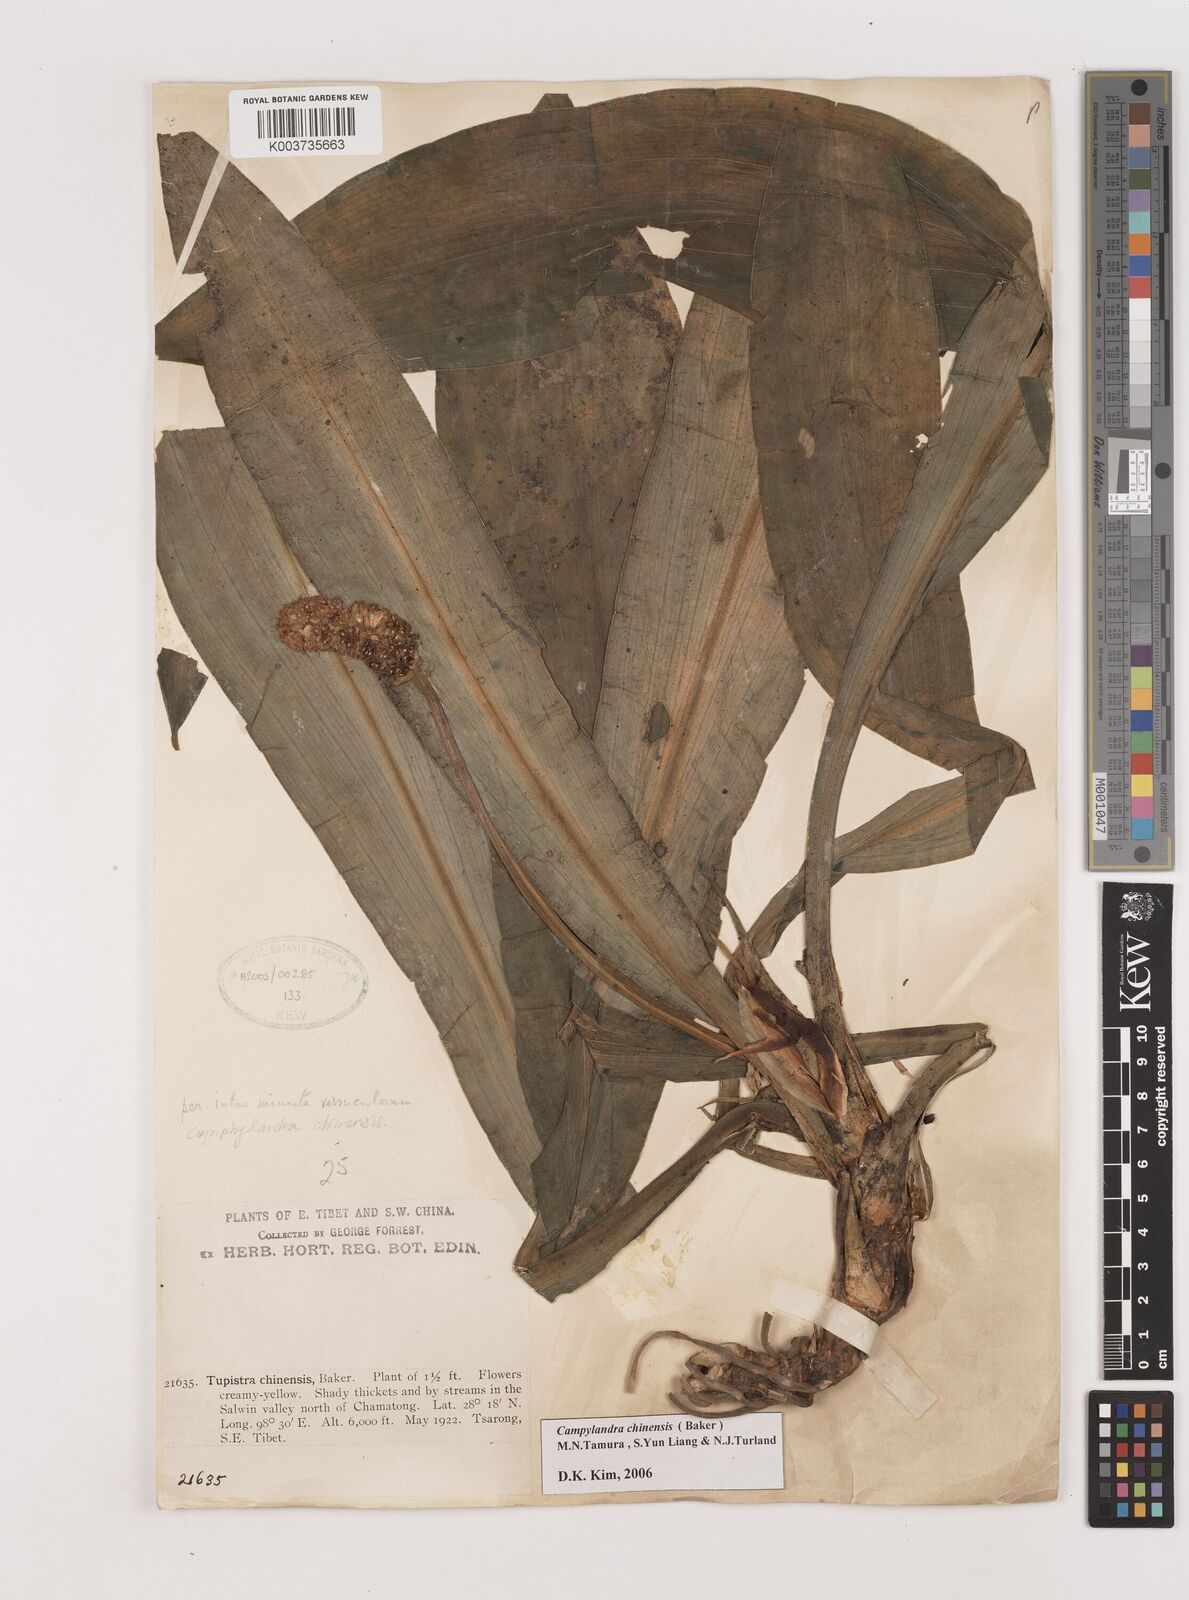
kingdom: Plantae
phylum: Tracheophyta
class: Liliopsida
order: Asparagales
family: Asparagaceae
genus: Rohdea
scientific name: Rohdea fargesii
